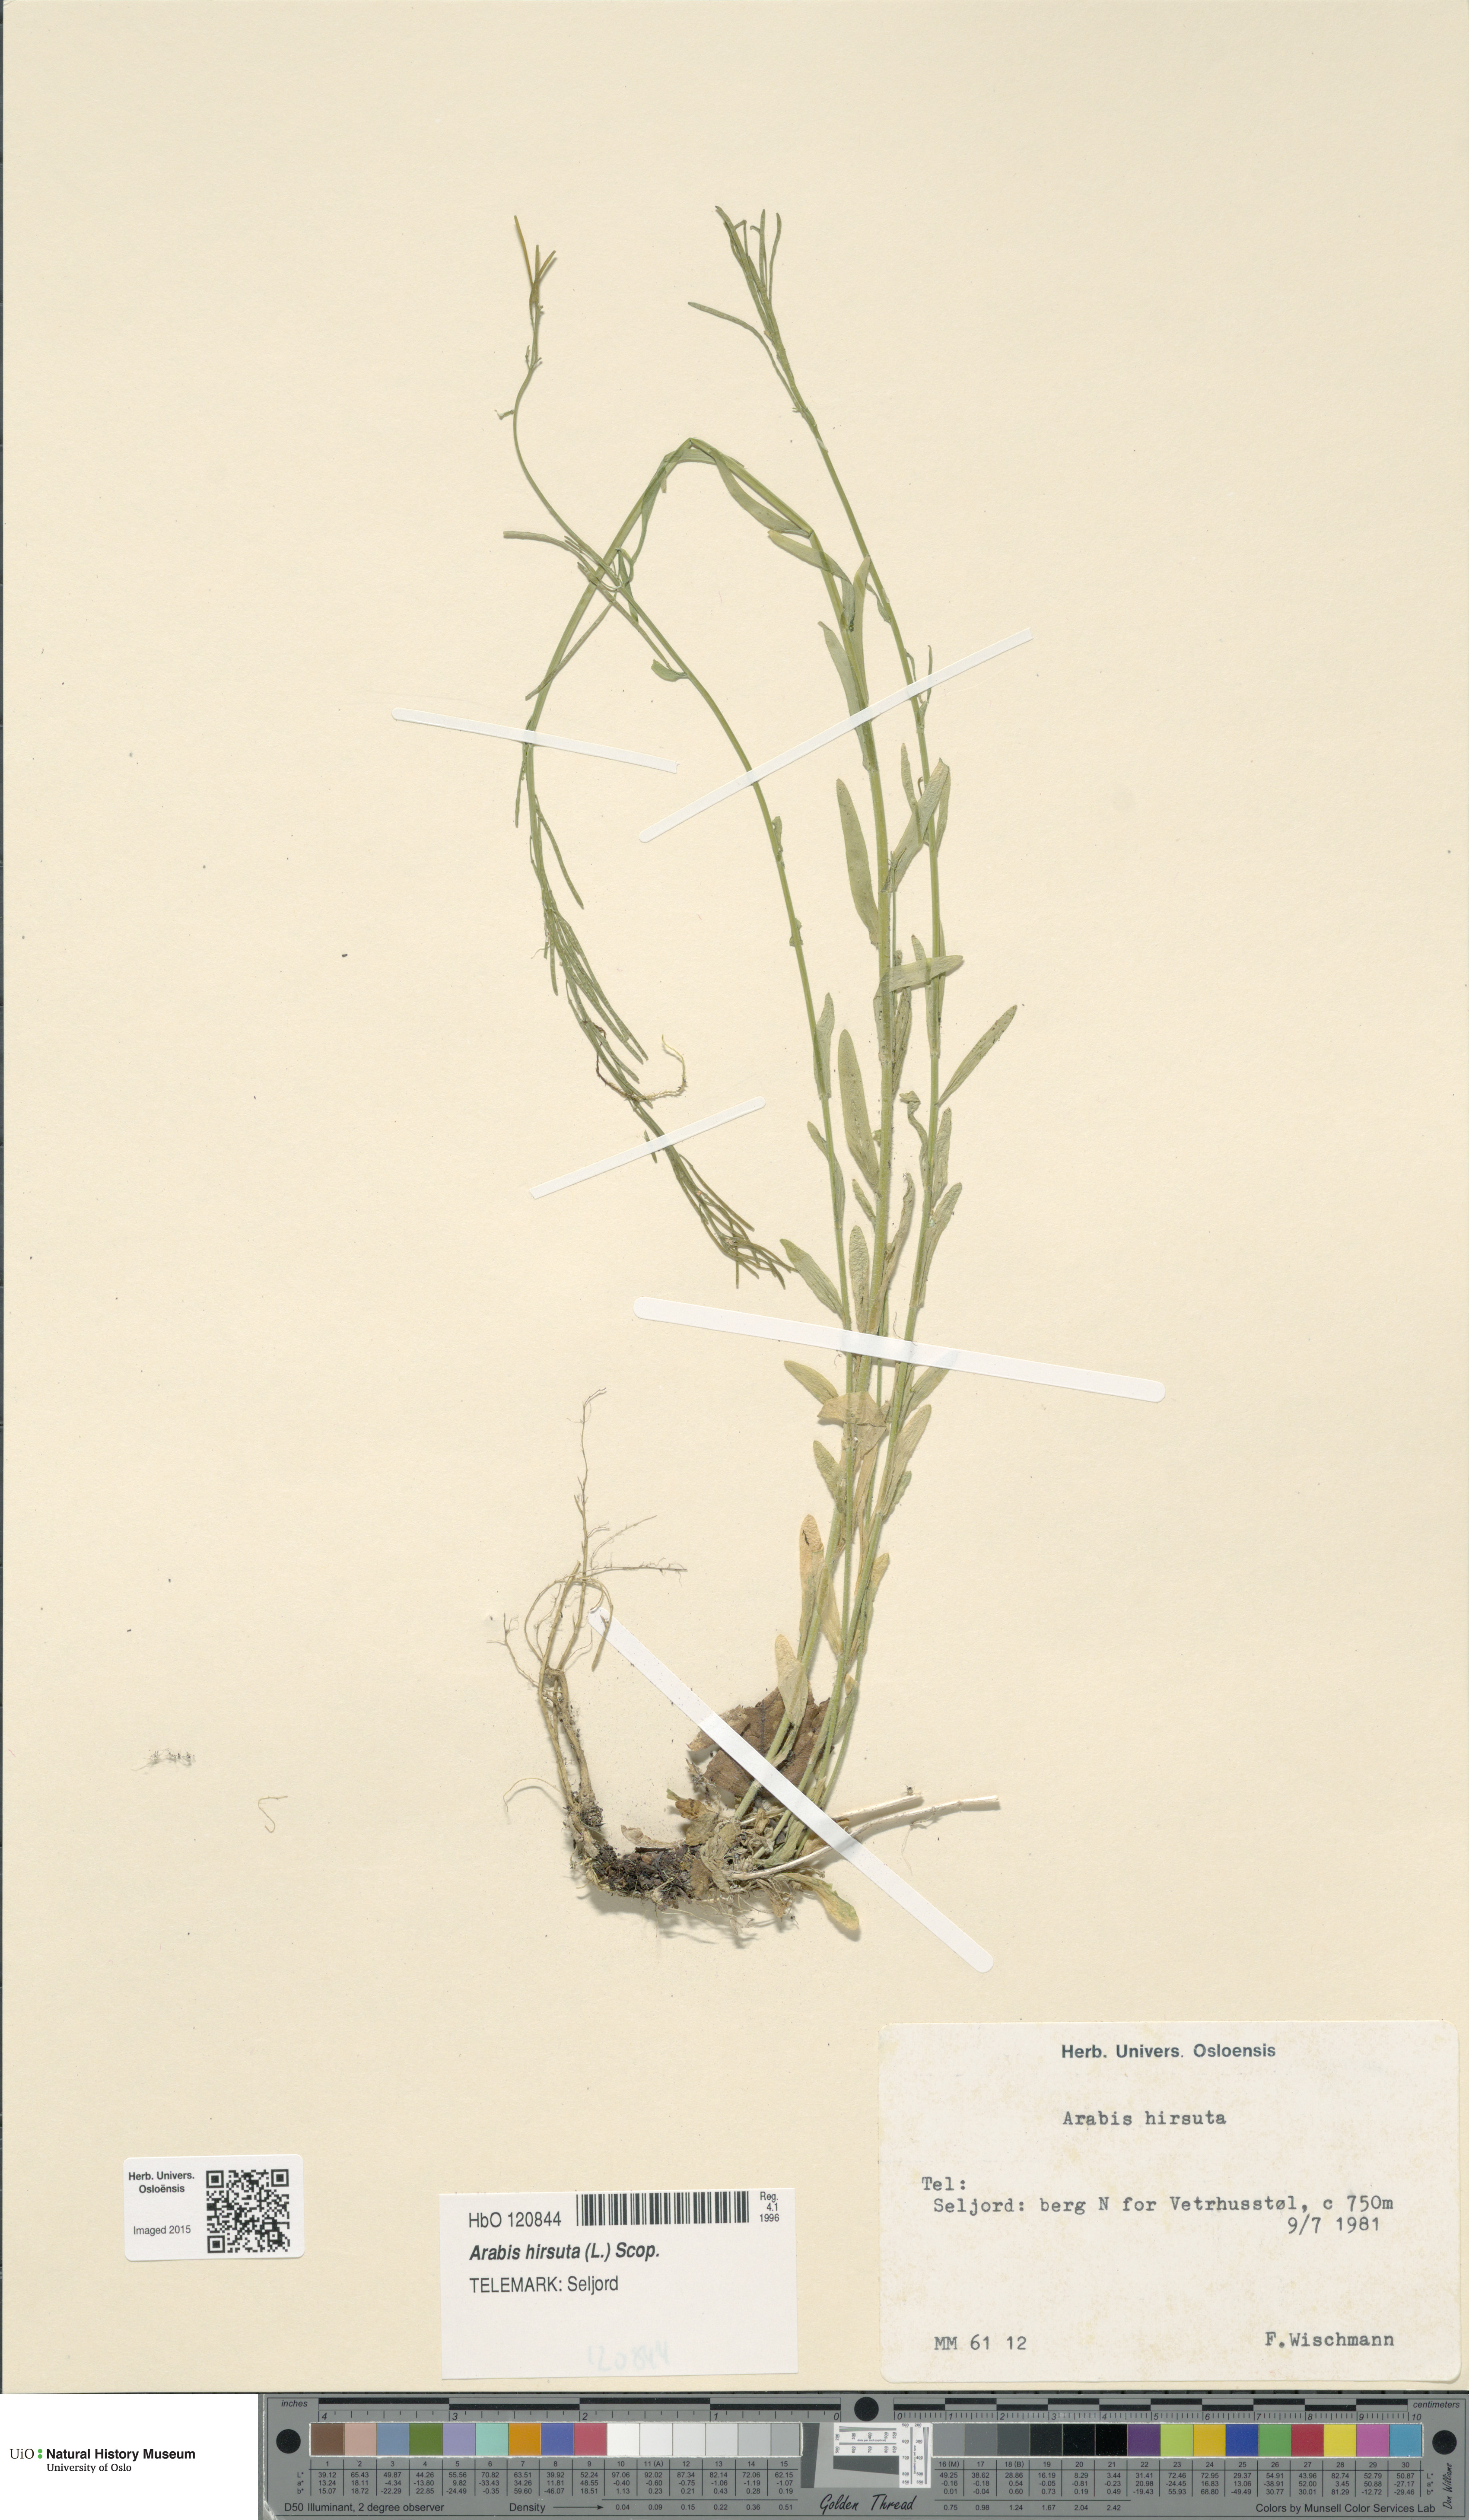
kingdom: Plantae
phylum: Tracheophyta
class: Magnoliopsida
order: Brassicales
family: Brassicaceae
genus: Arabis
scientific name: Arabis hirsuta
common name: Hairy rock-cress
